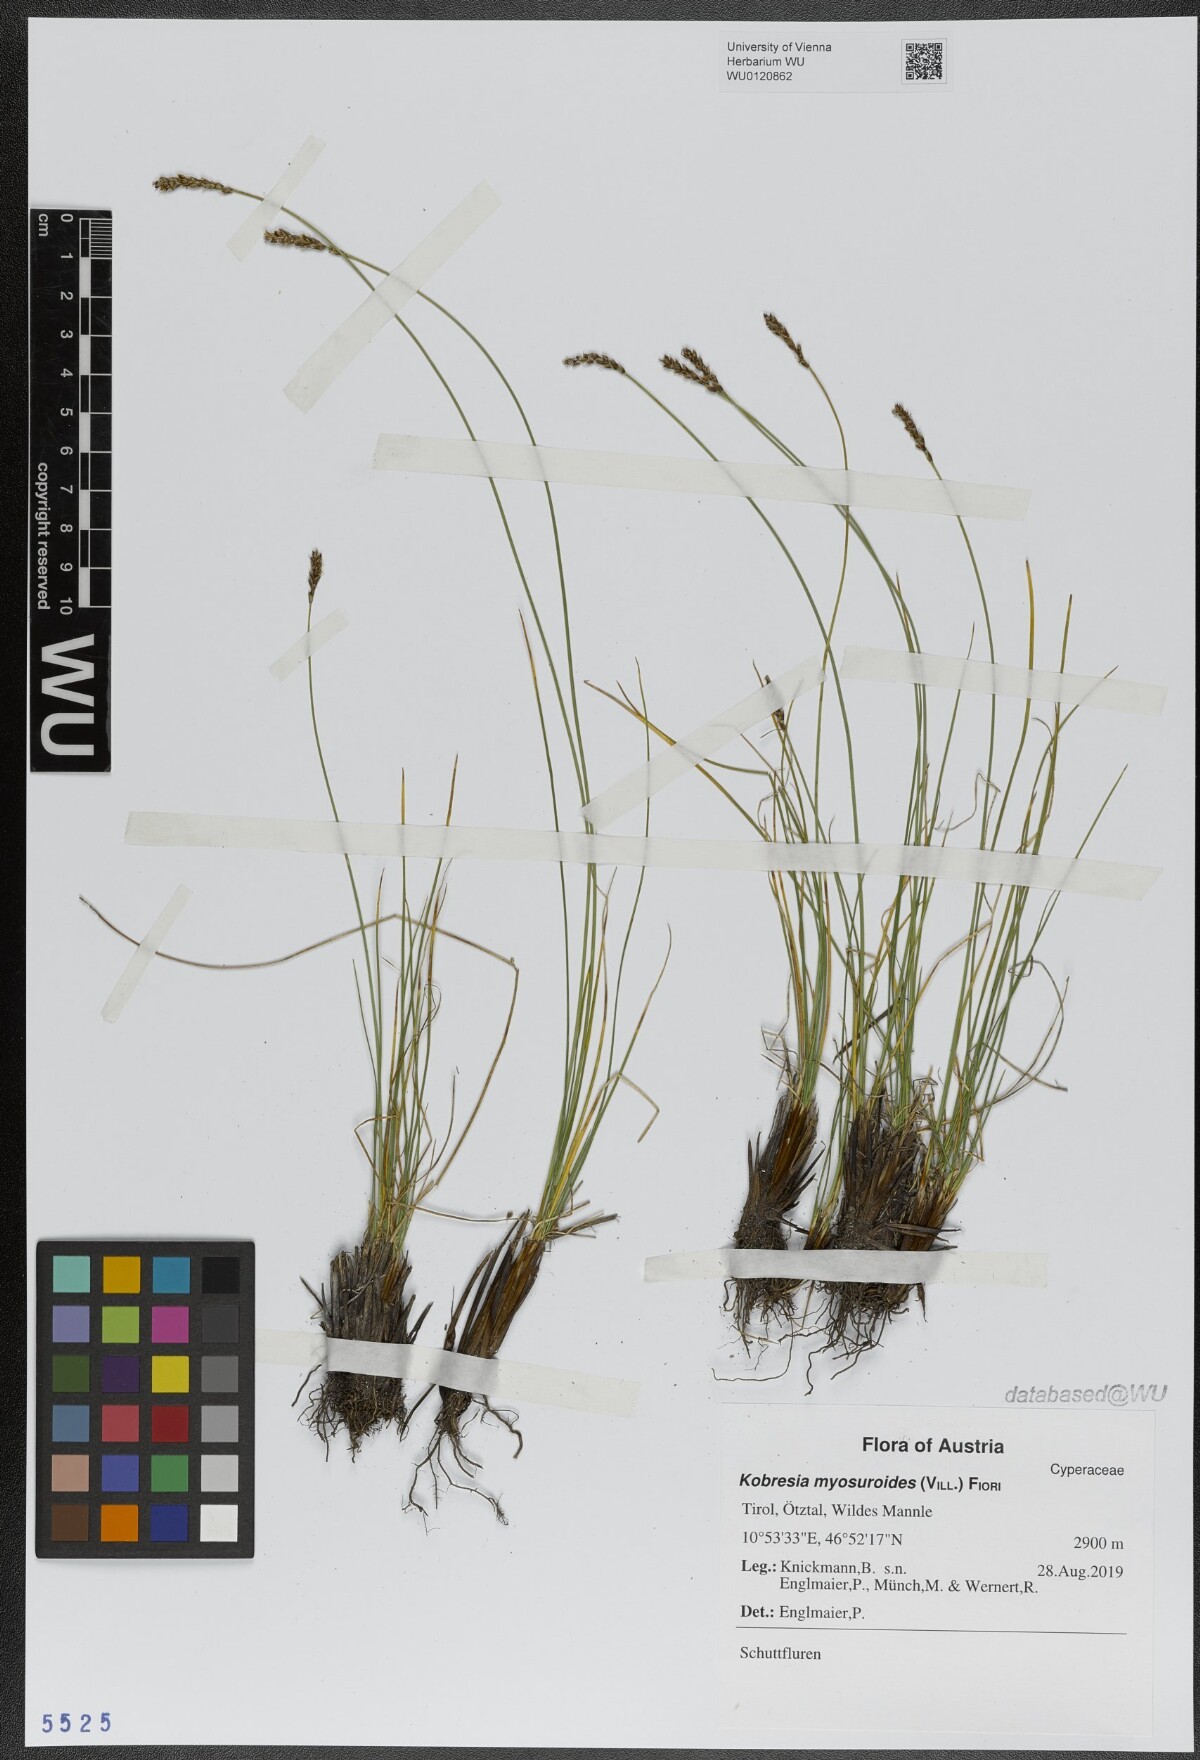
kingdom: Plantae
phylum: Tracheophyta
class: Liliopsida
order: Poales
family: Cyperaceae
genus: Carex
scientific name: Carex myosuroides
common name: Bellard's bog sedge
